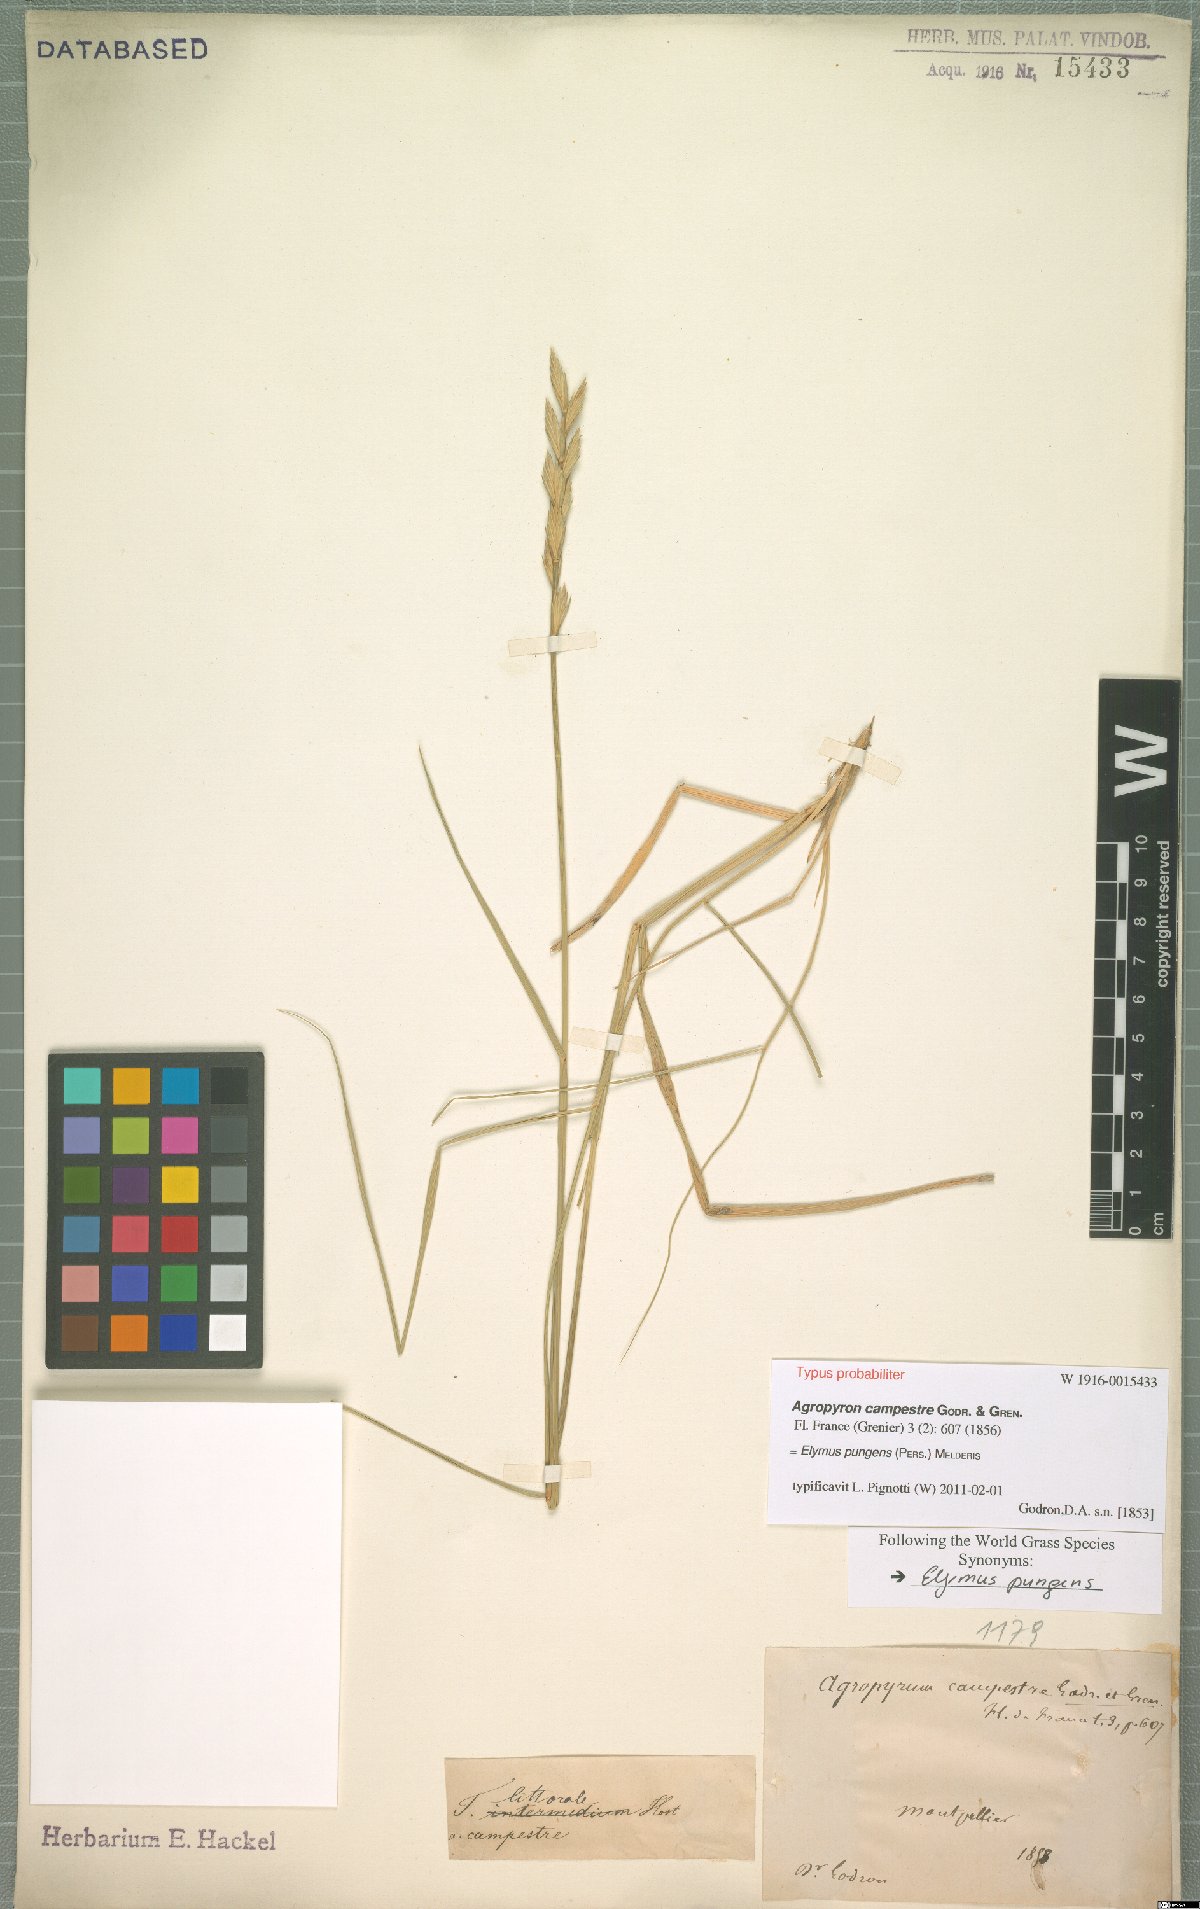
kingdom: Plantae
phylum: Tracheophyta
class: Liliopsida
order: Poales
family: Poaceae
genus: Elymus
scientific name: Elymus pungens
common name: Sea couch
